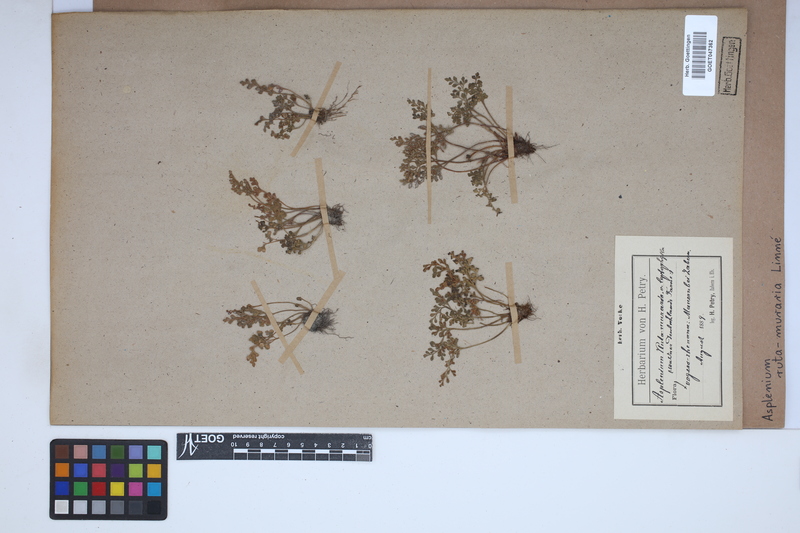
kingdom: Plantae
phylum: Tracheophyta
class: Polypodiopsida
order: Polypodiales
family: Aspleniaceae
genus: Asplenium
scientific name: Asplenium ruta-muraria
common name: Wall-rue
